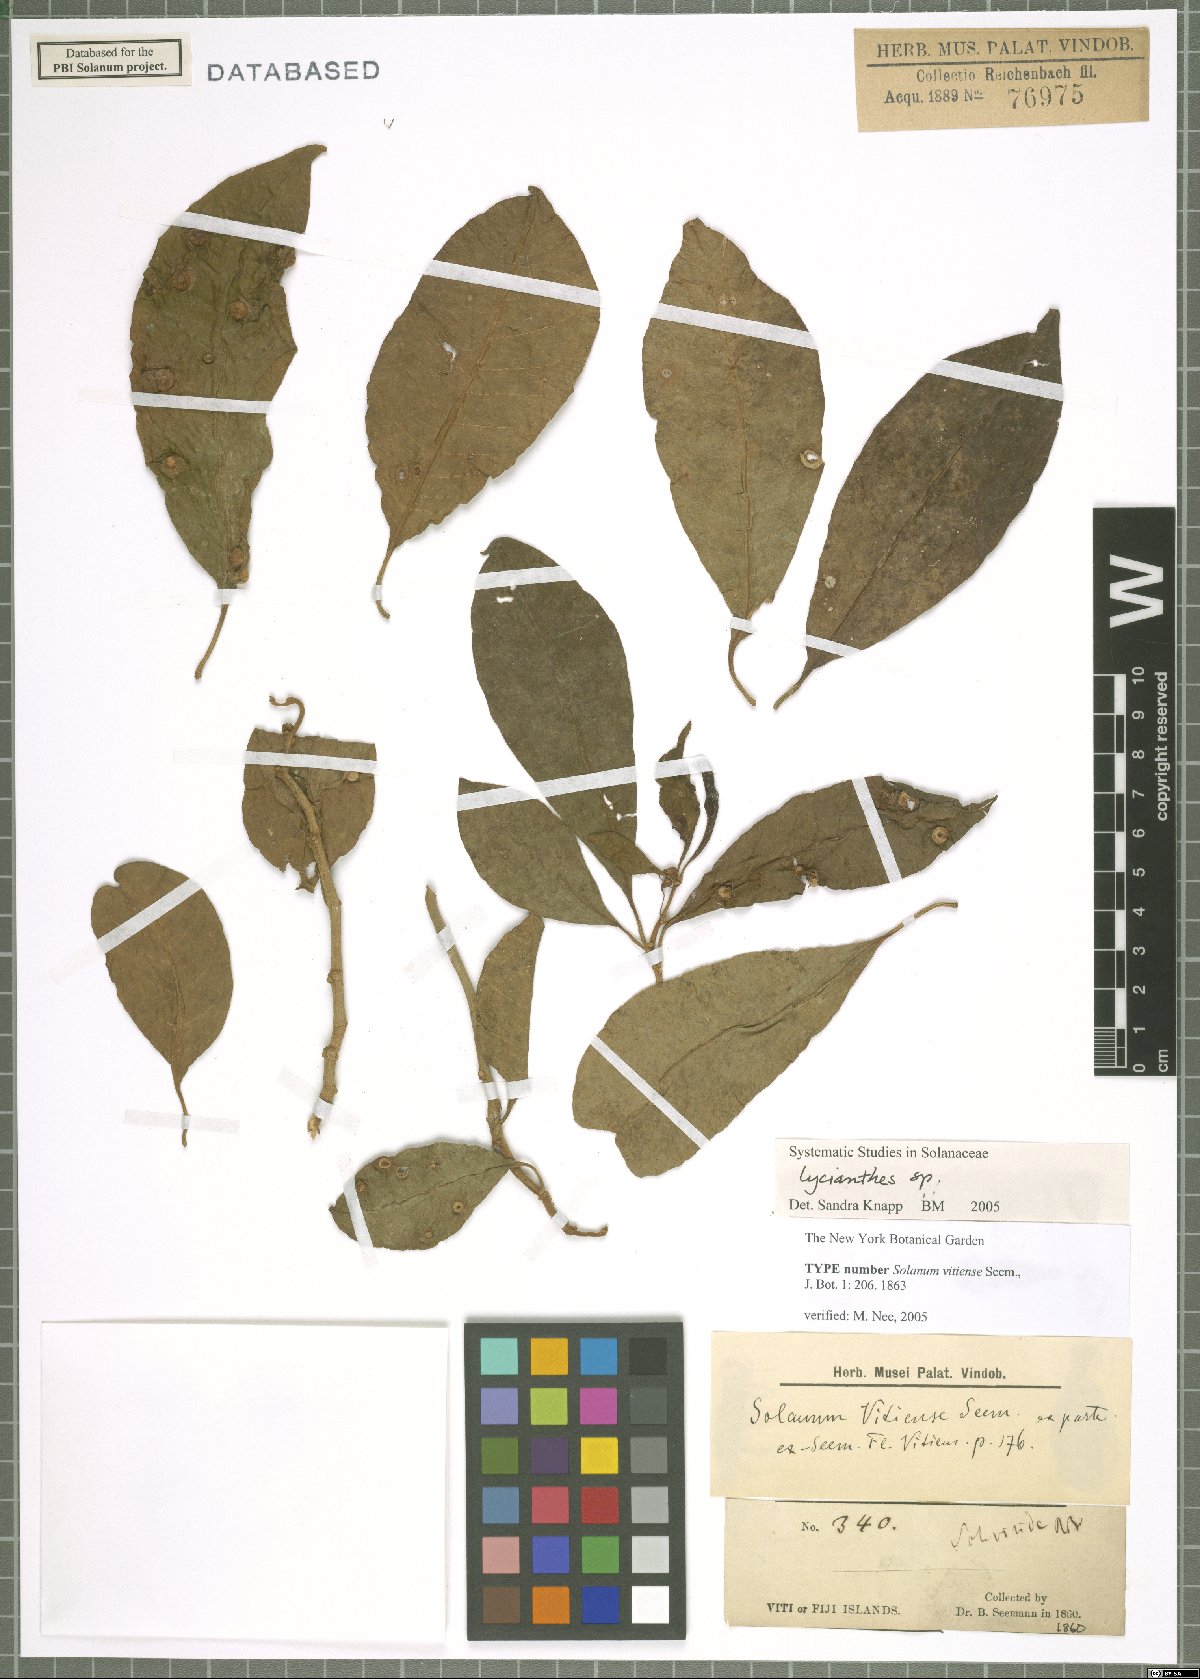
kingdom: Plantae
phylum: Tracheophyta
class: Magnoliopsida
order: Solanales
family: Solanaceae
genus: Lycianthes
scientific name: Lycianthes vitiensis
